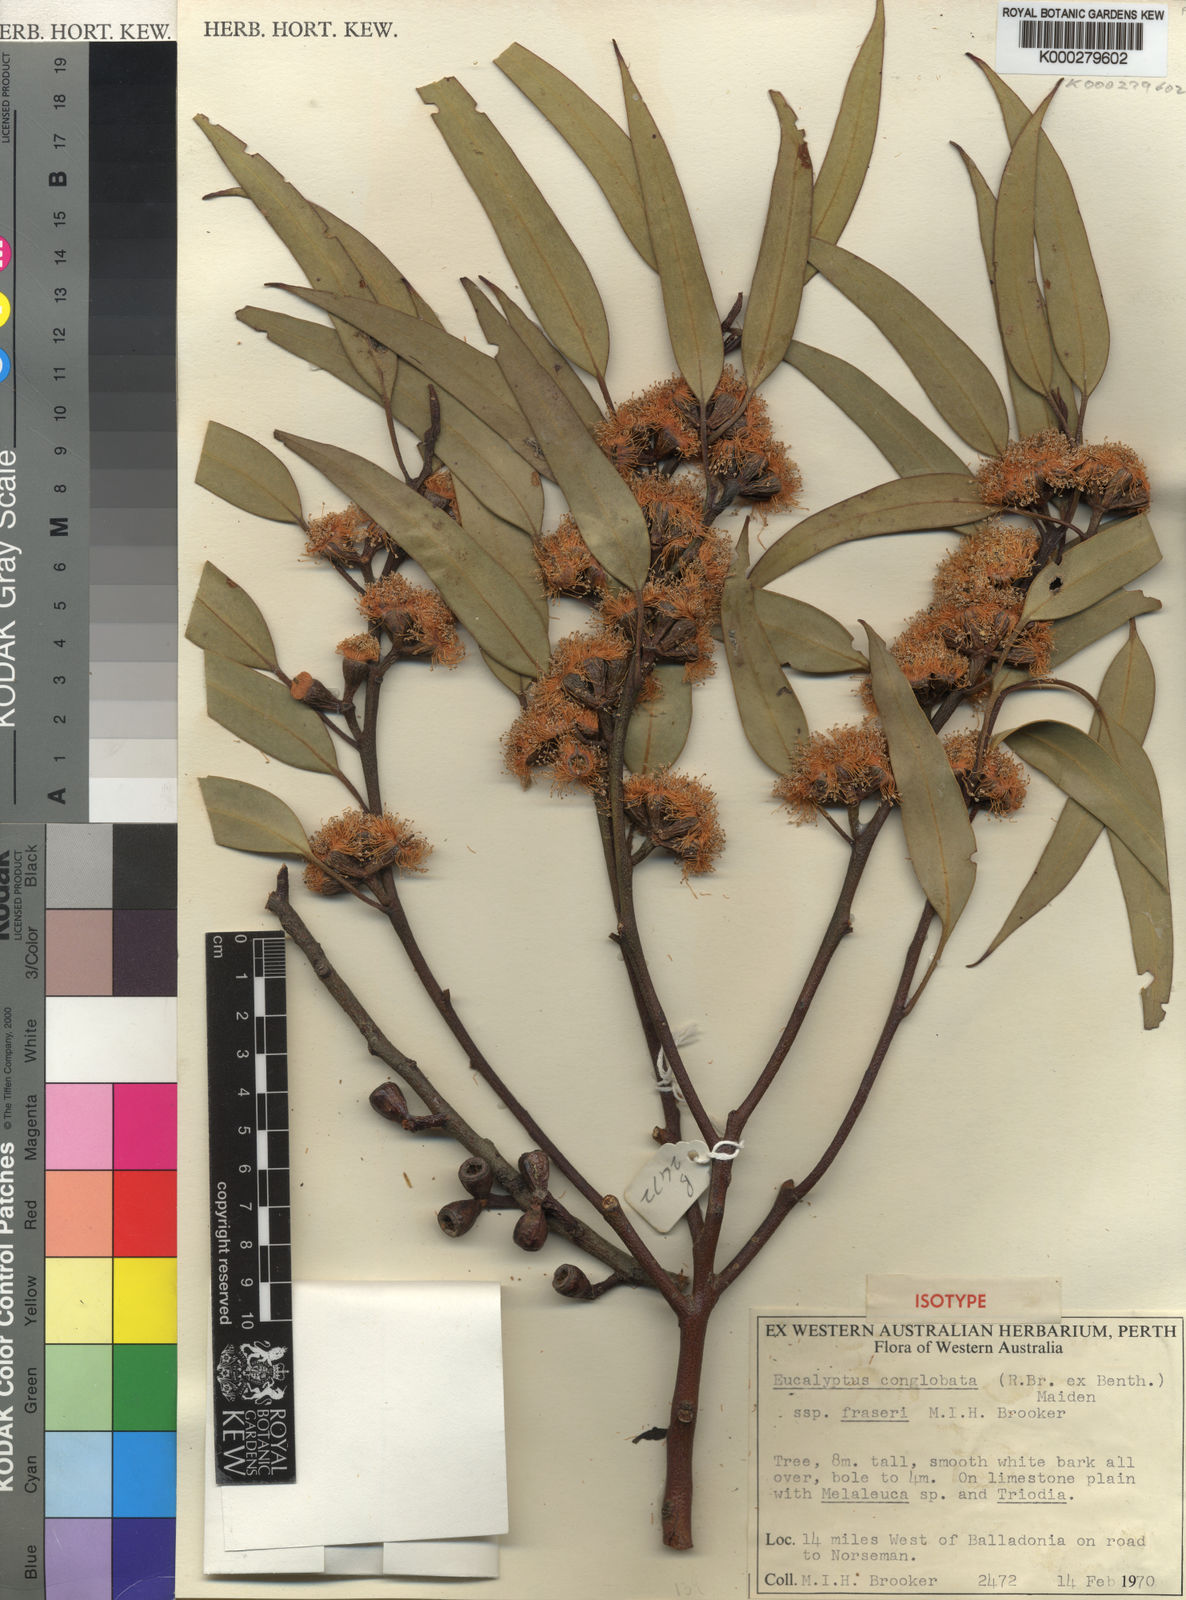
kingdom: Plantae
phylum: Tracheophyta
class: Magnoliopsida
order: Myrtales
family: Myrtaceae
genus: Eucalyptus
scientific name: Eucalyptus fraseri
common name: Balladonia gum
